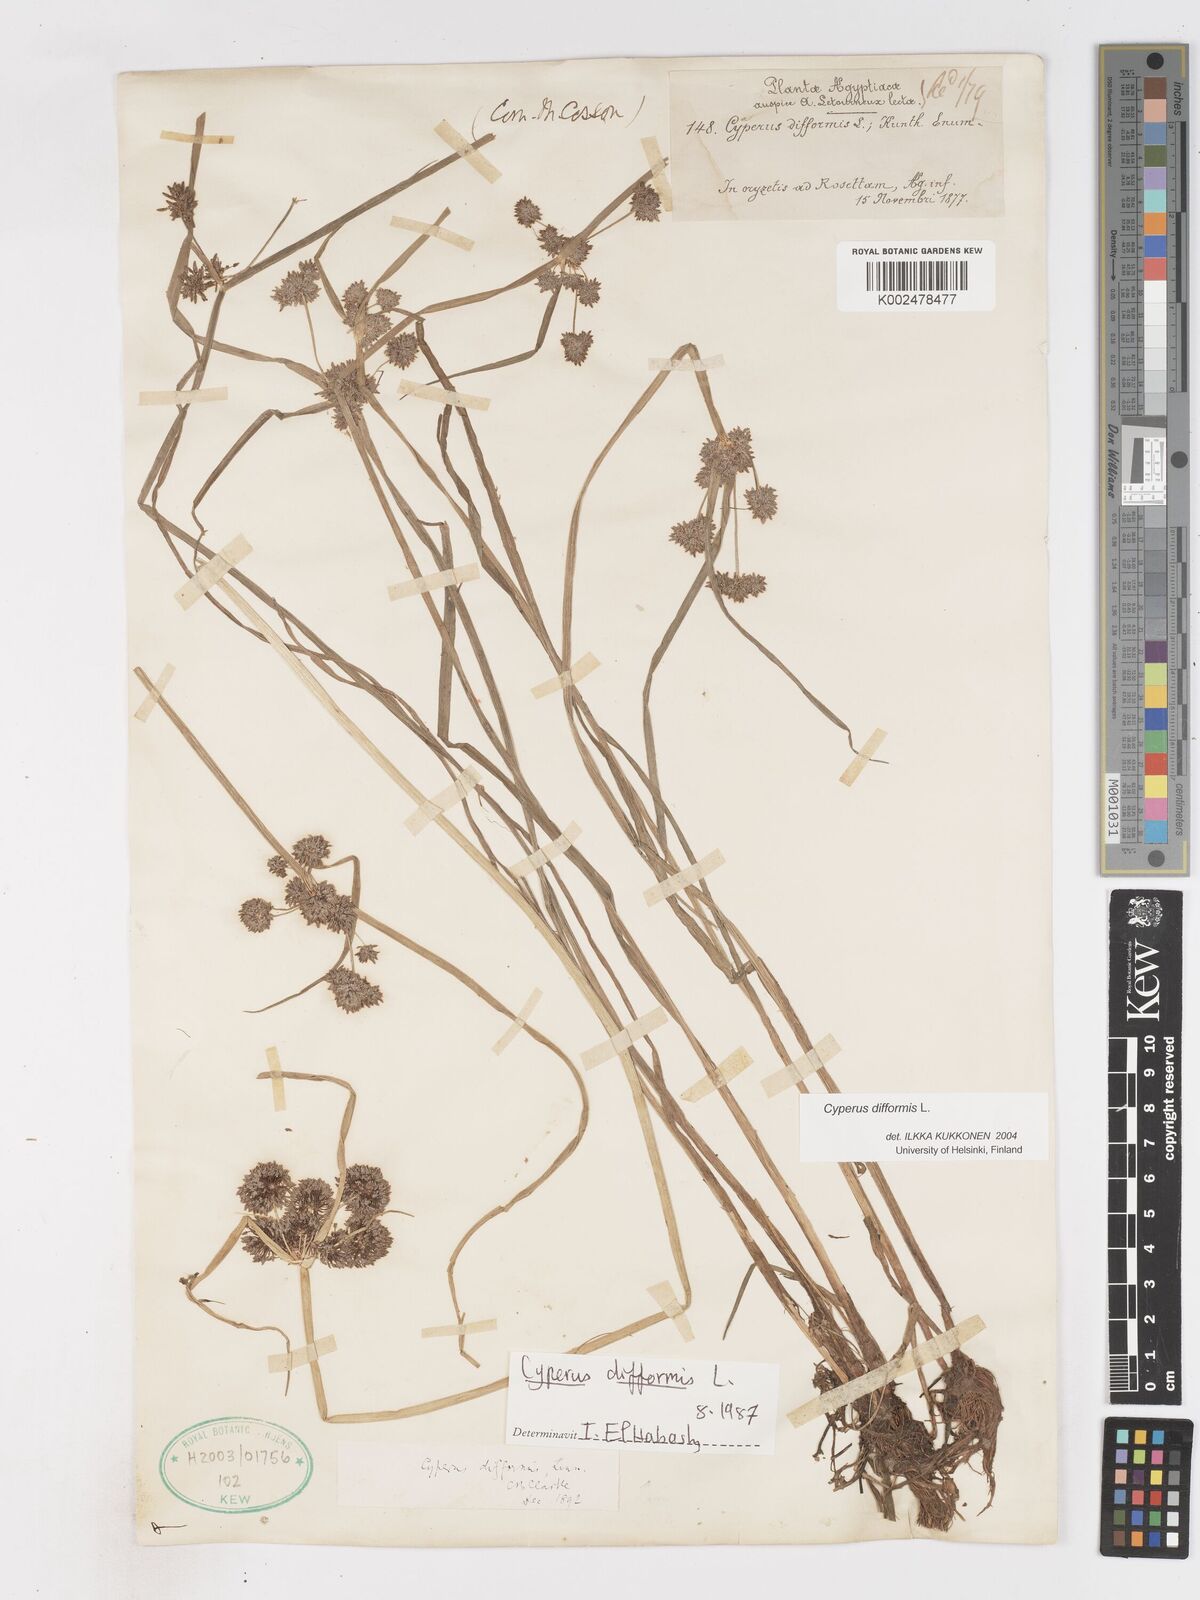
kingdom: Plantae
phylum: Tracheophyta
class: Liliopsida
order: Poales
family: Cyperaceae
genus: Cyperus
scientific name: Cyperus difformis
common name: Variable flatsedge
